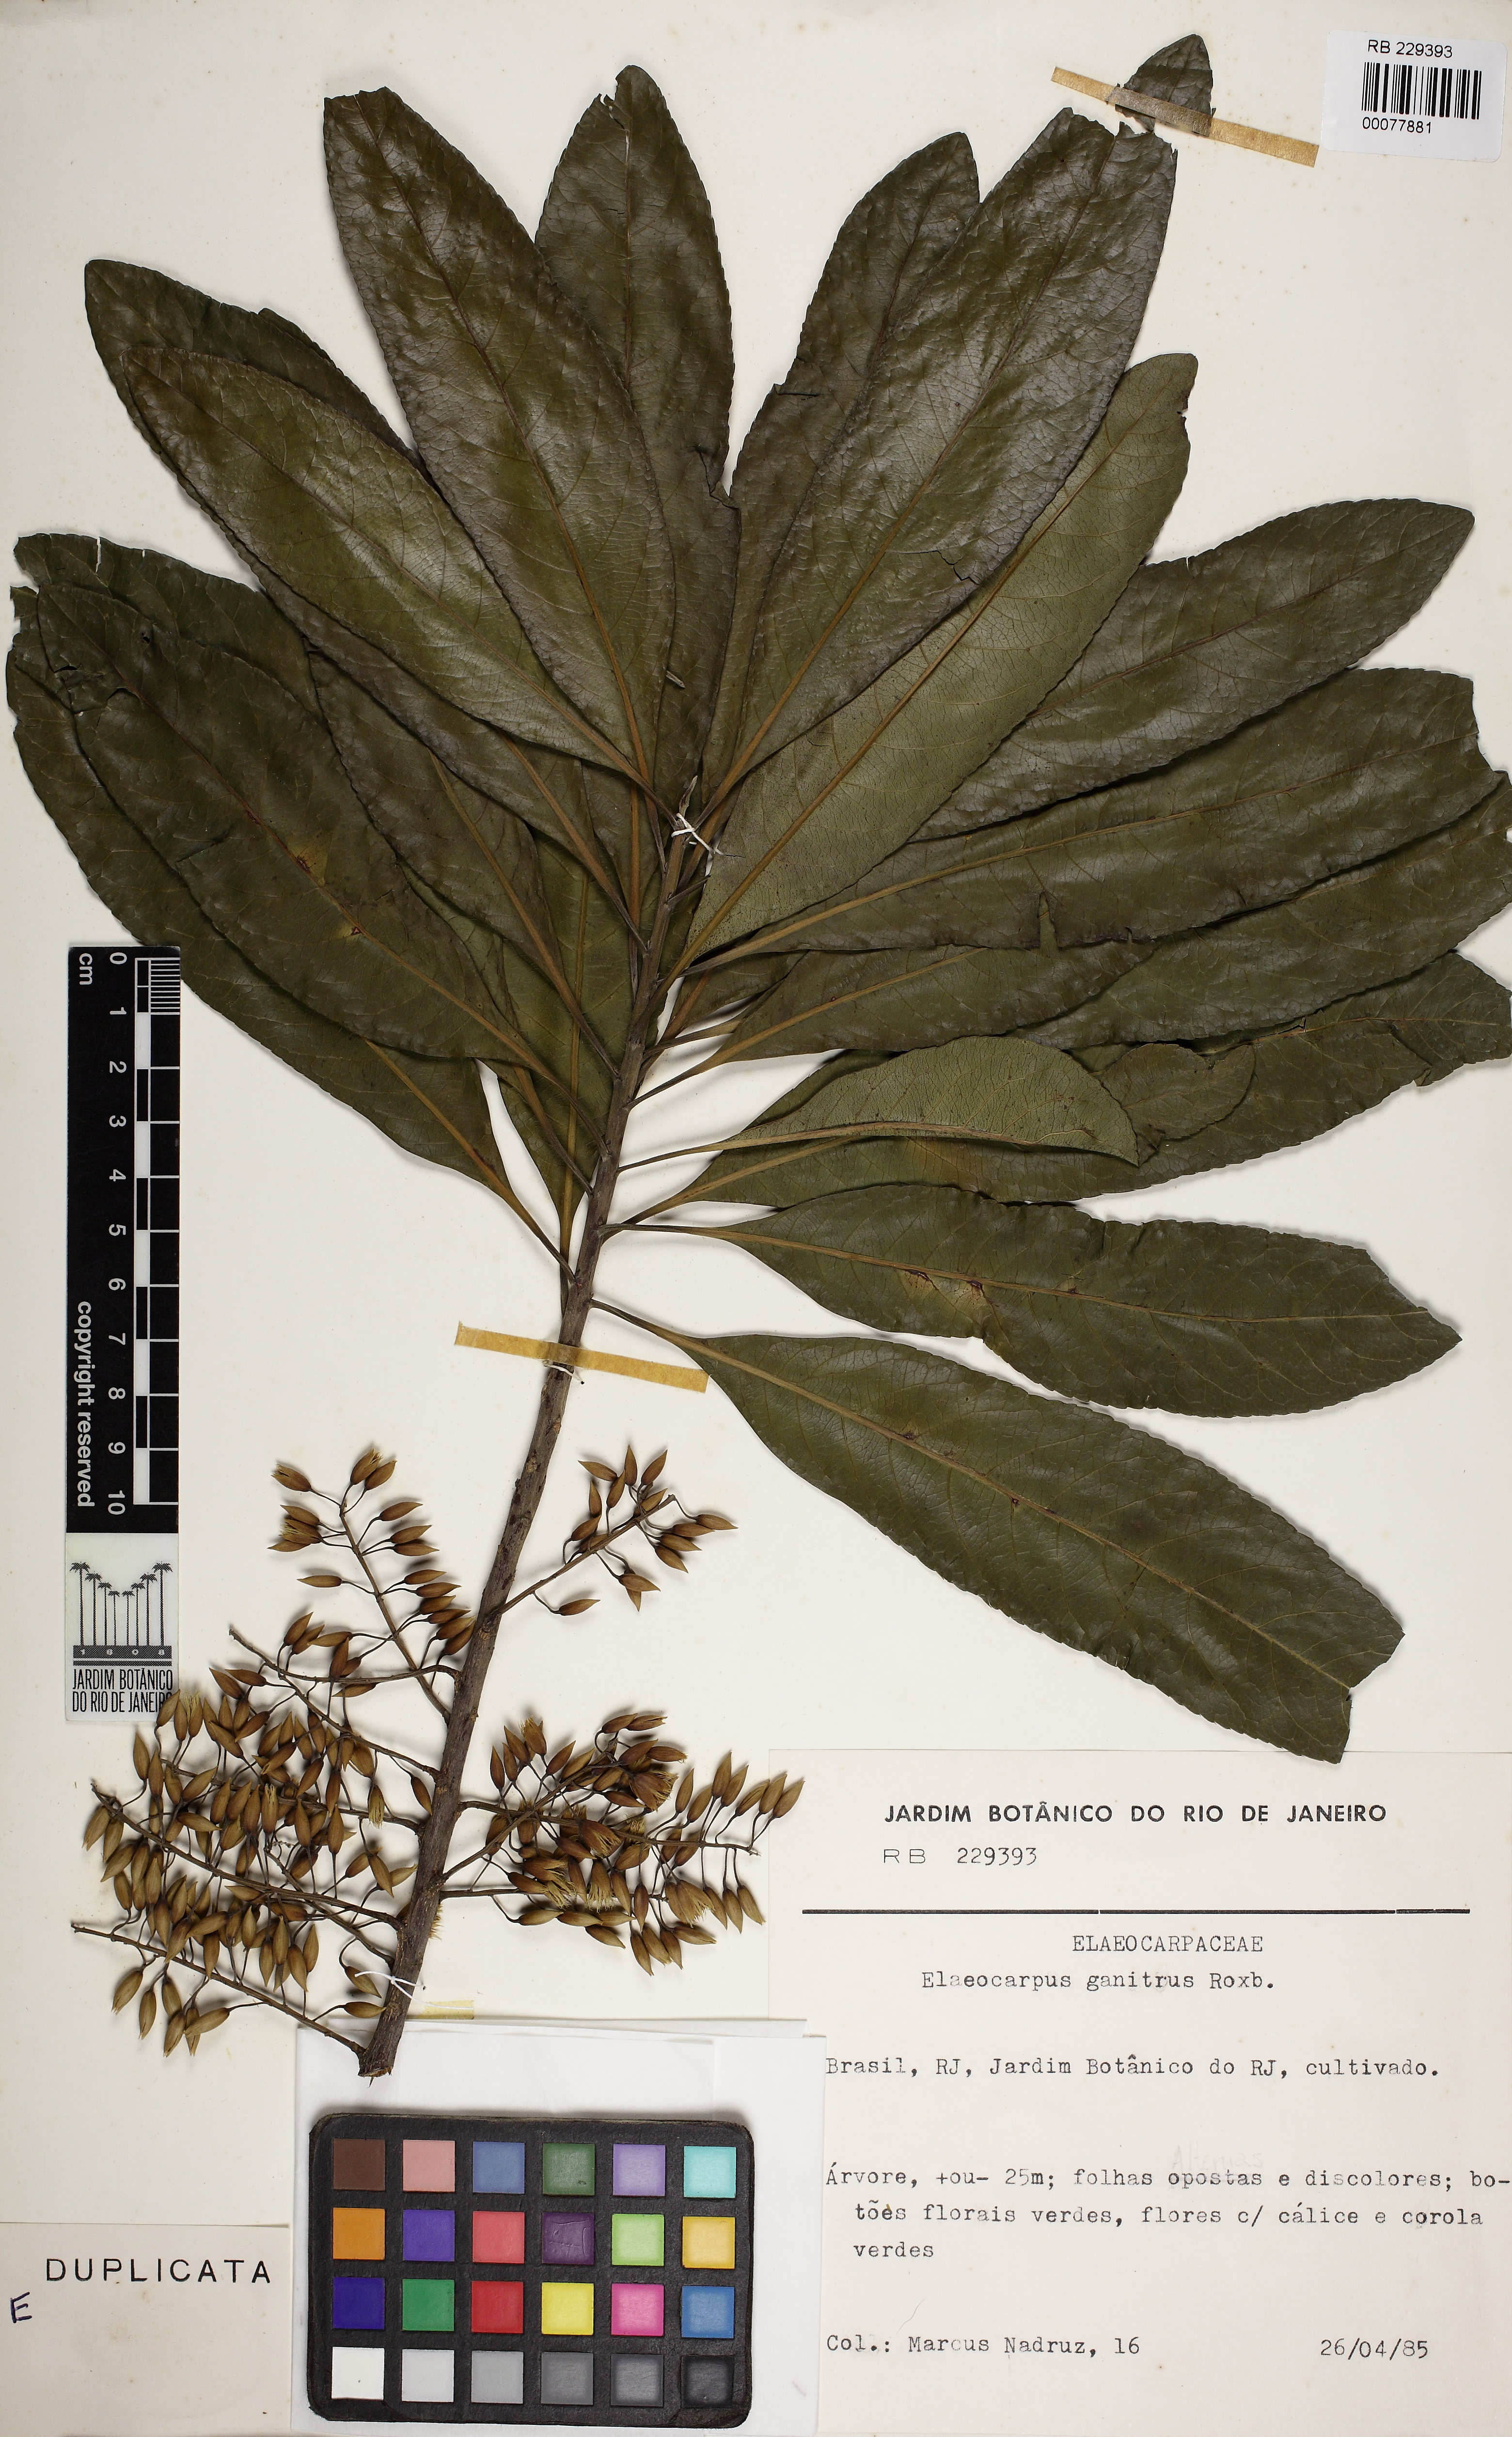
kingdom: Plantae
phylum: Tracheophyta
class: Magnoliopsida
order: Oxalidales
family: Elaeocarpaceae
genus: Elaeocarpus
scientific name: Elaeocarpus angustifolius
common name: Blue marble tree
